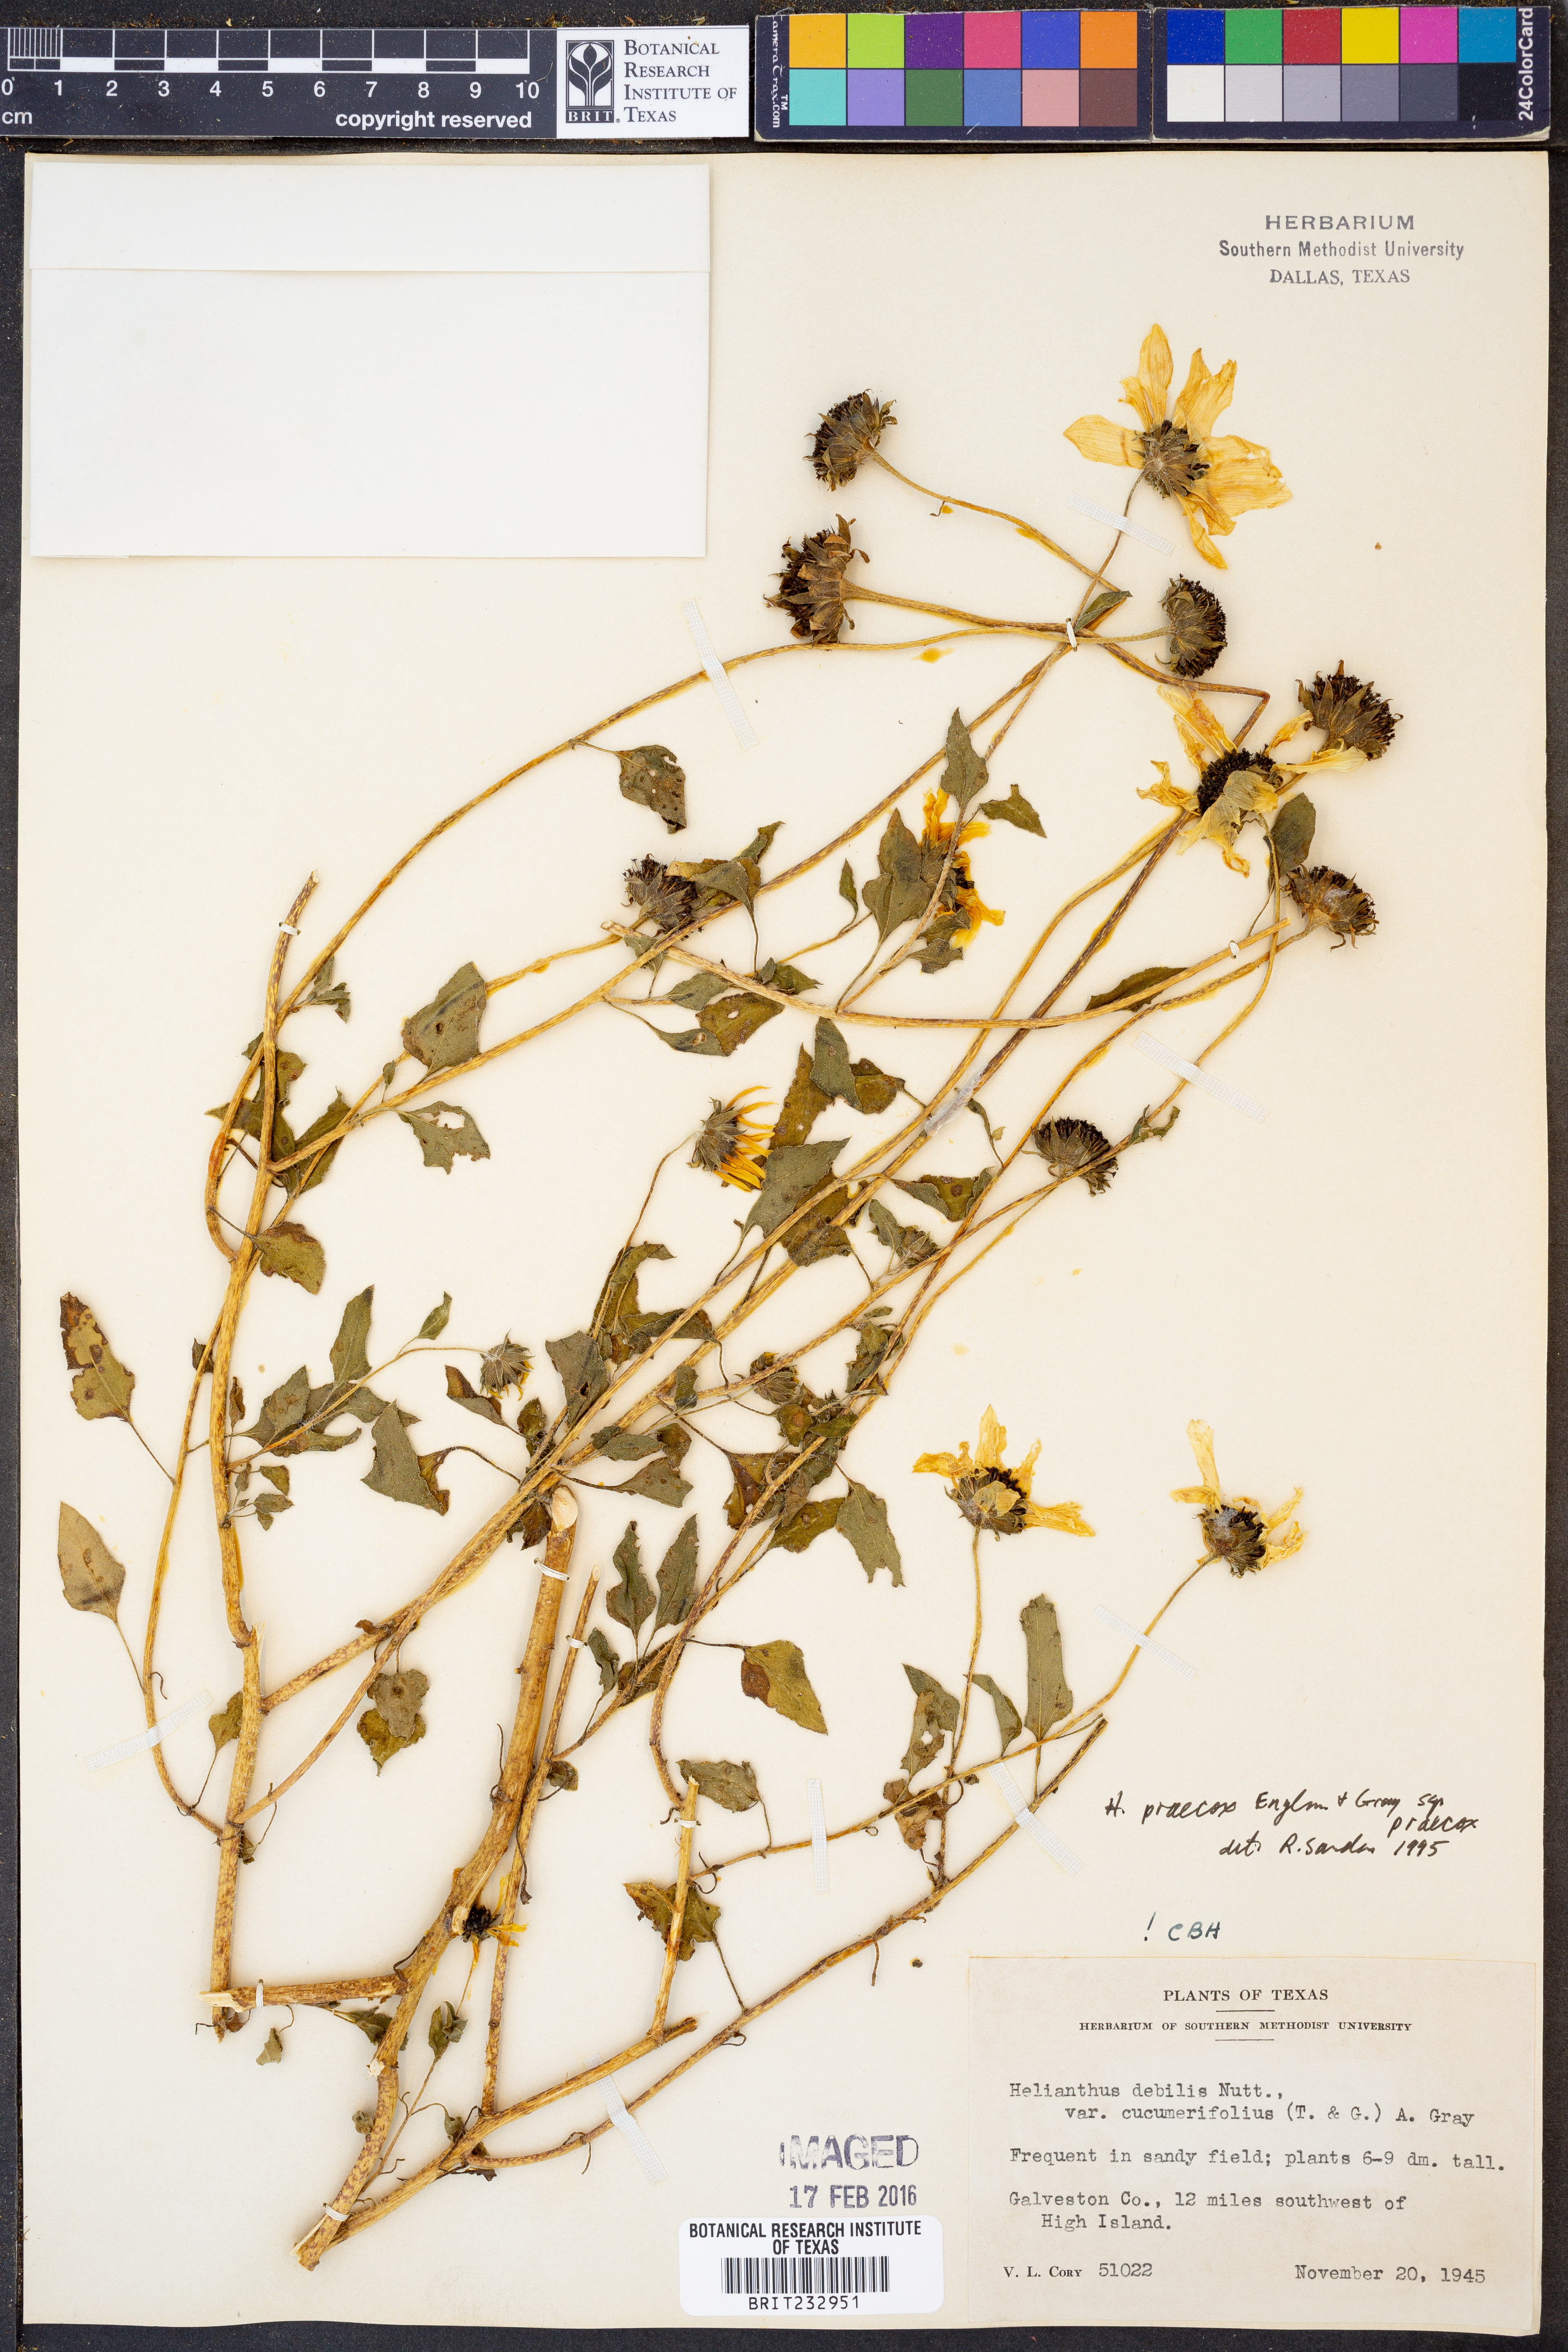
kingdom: Plantae
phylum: Tracheophyta
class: Magnoliopsida
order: Asterales
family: Asteraceae
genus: Helianthus
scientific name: Helianthus praecox
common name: Texas sunflower
